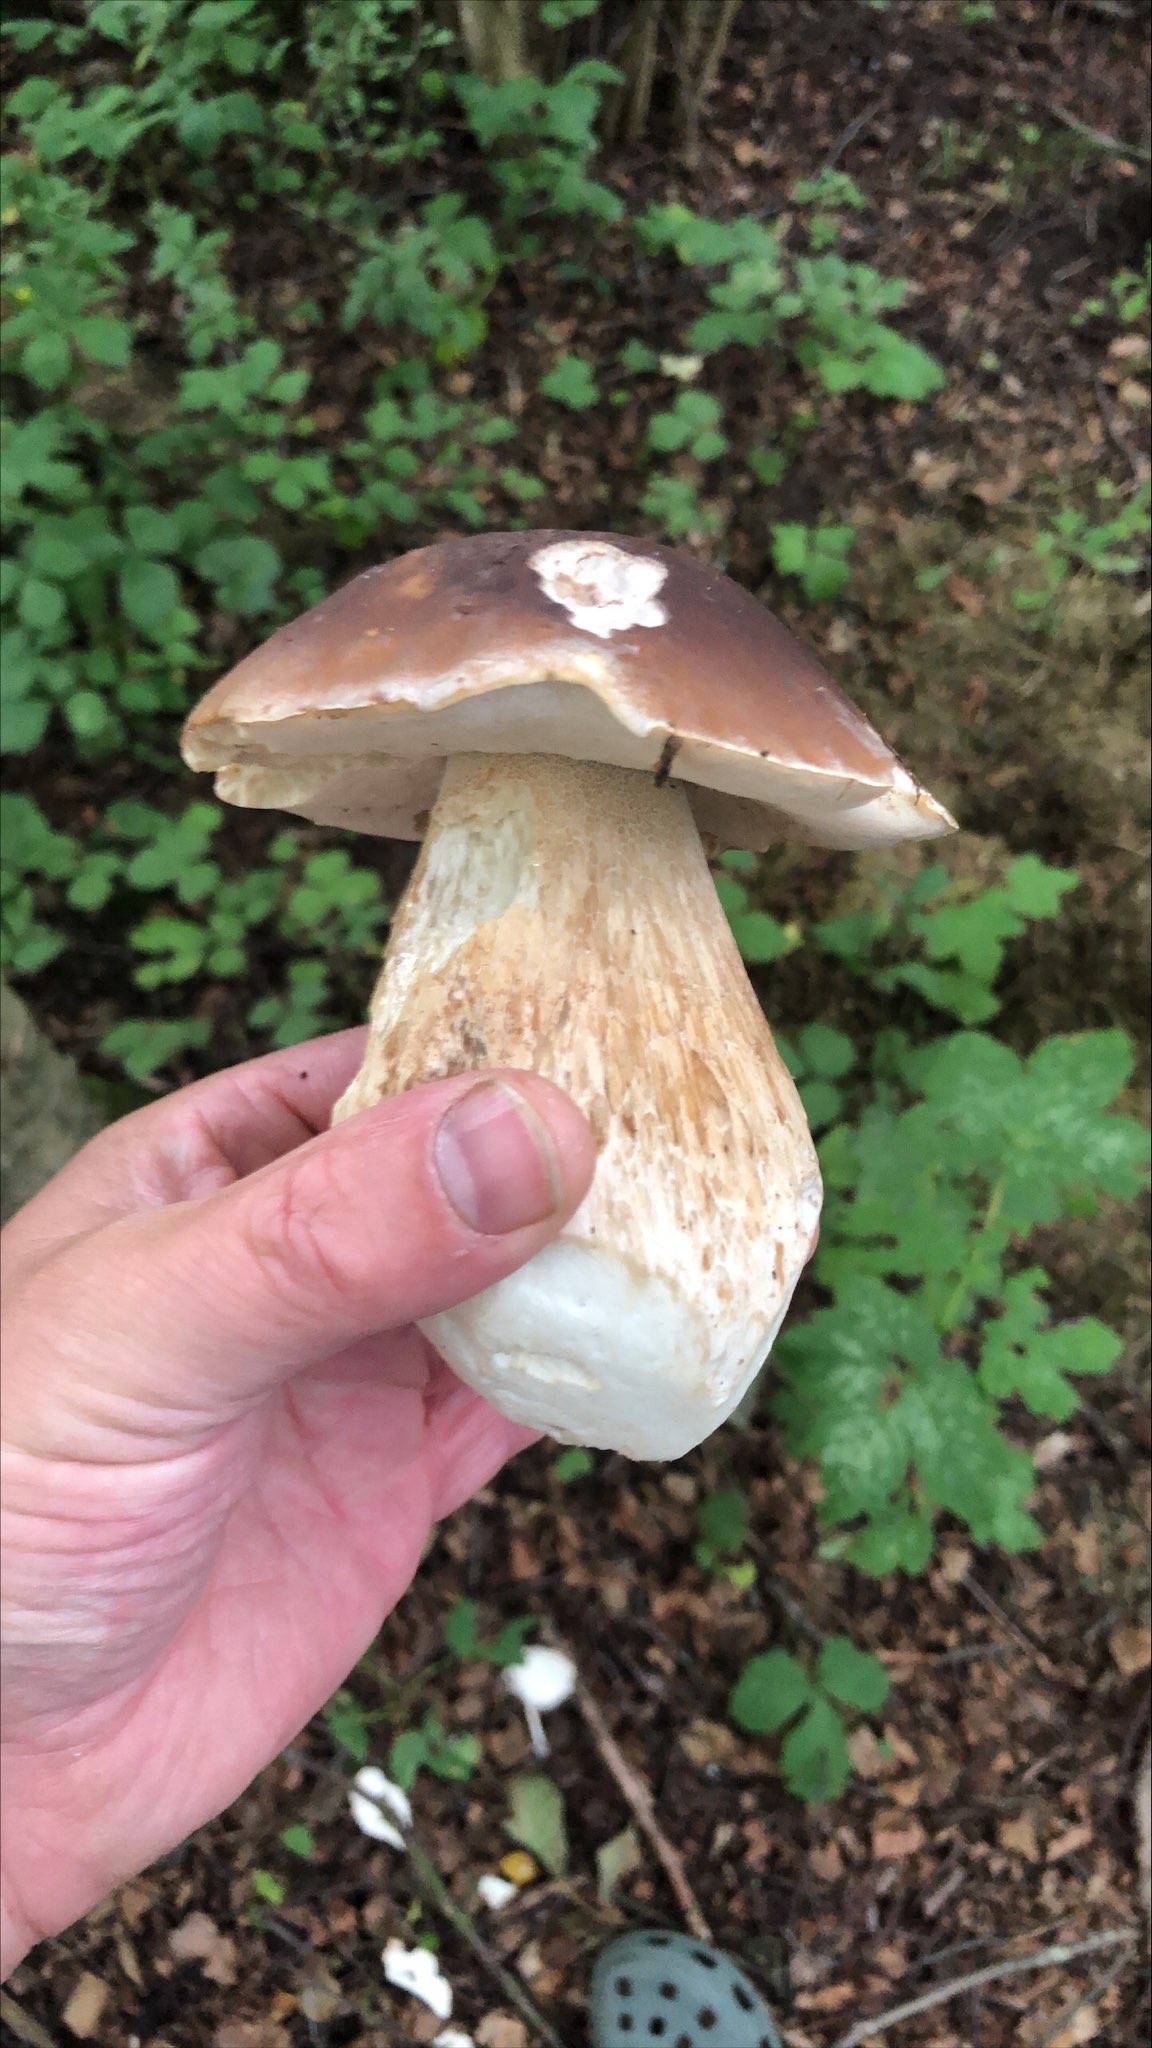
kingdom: Fungi
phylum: Basidiomycota
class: Agaricomycetes
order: Boletales
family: Boletaceae
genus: Boletus
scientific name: Boletus edulis
